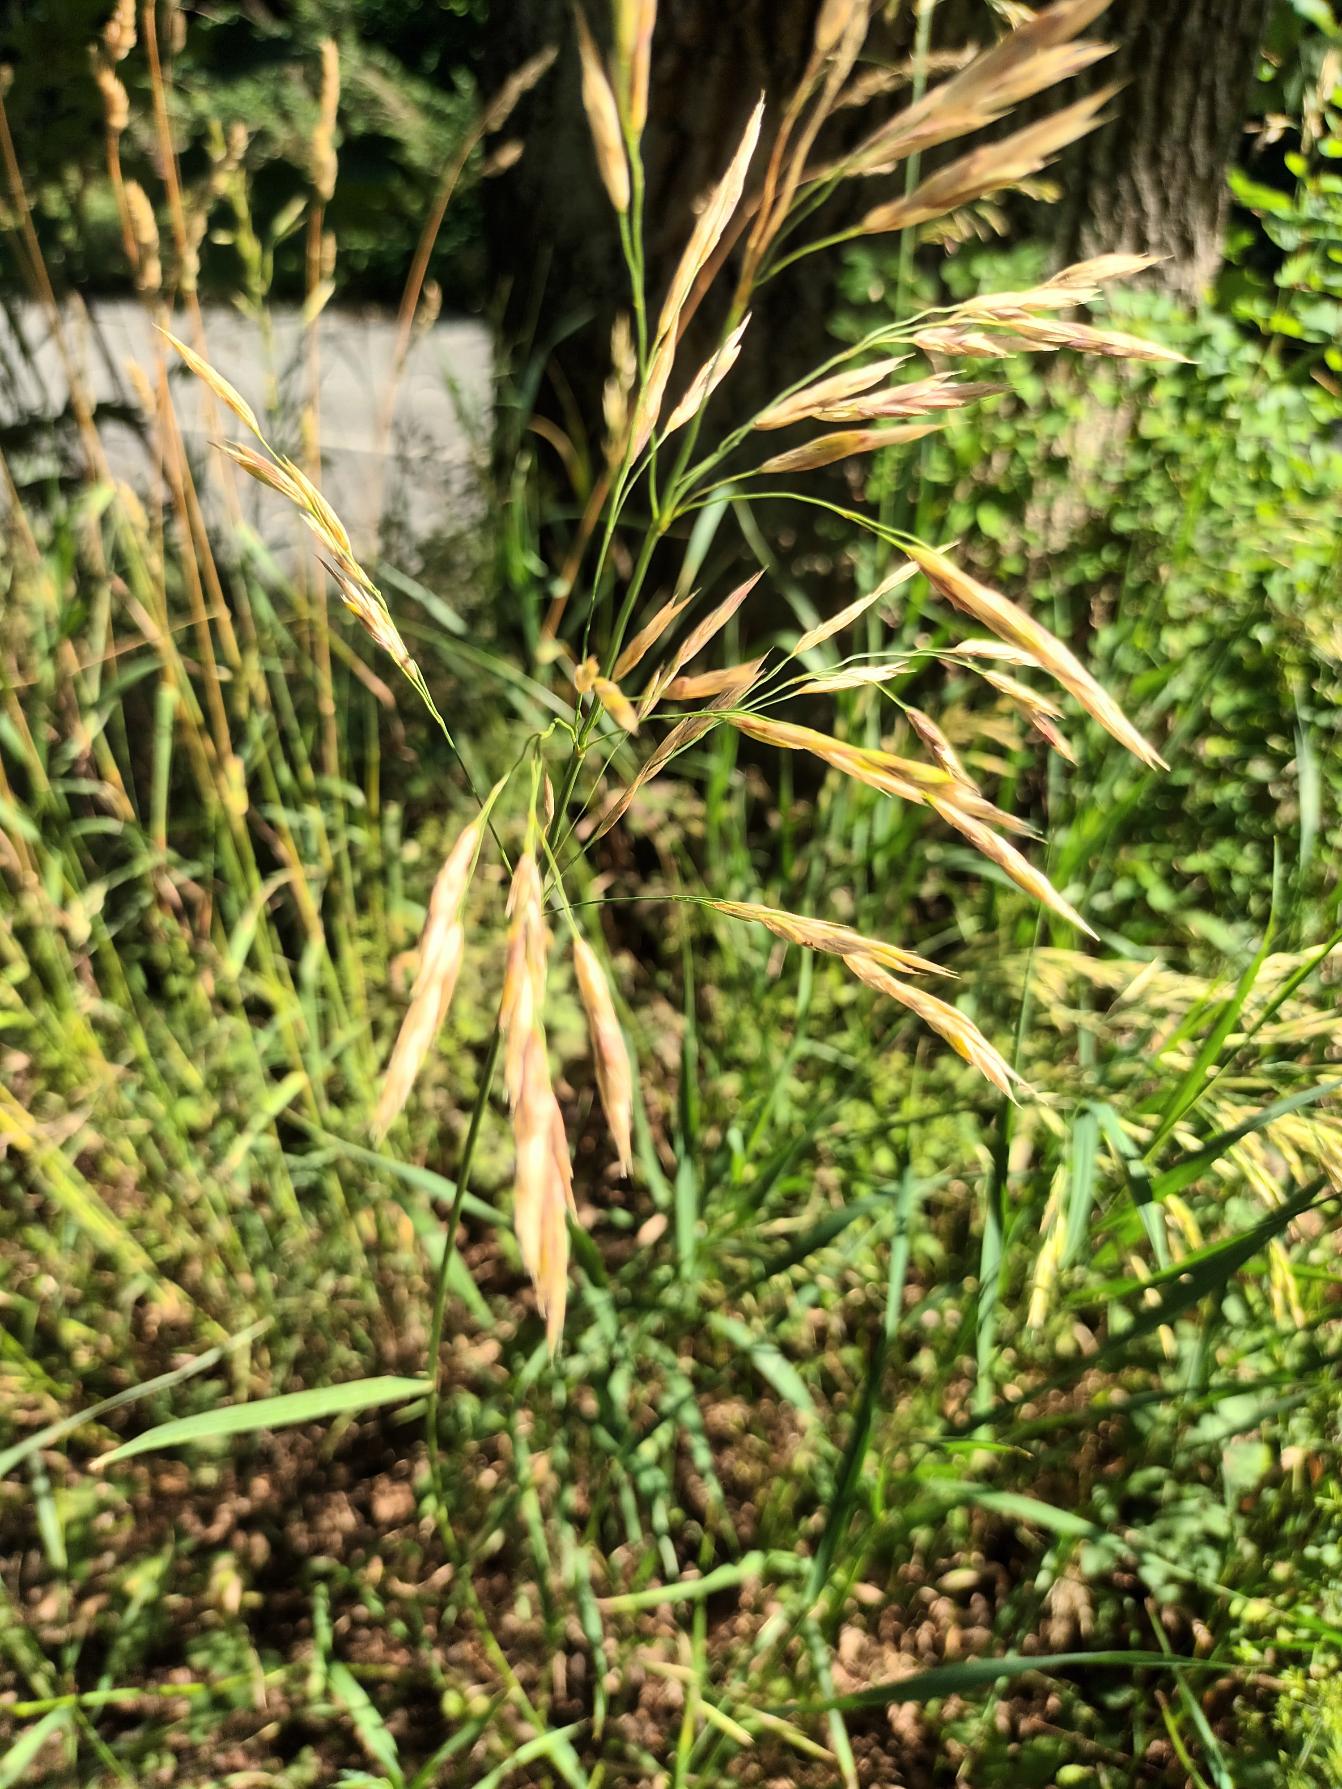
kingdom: Plantae
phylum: Tracheophyta
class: Liliopsida
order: Poales
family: Poaceae
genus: Bromus
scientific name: Bromus inermis
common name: Stakløs hejre
